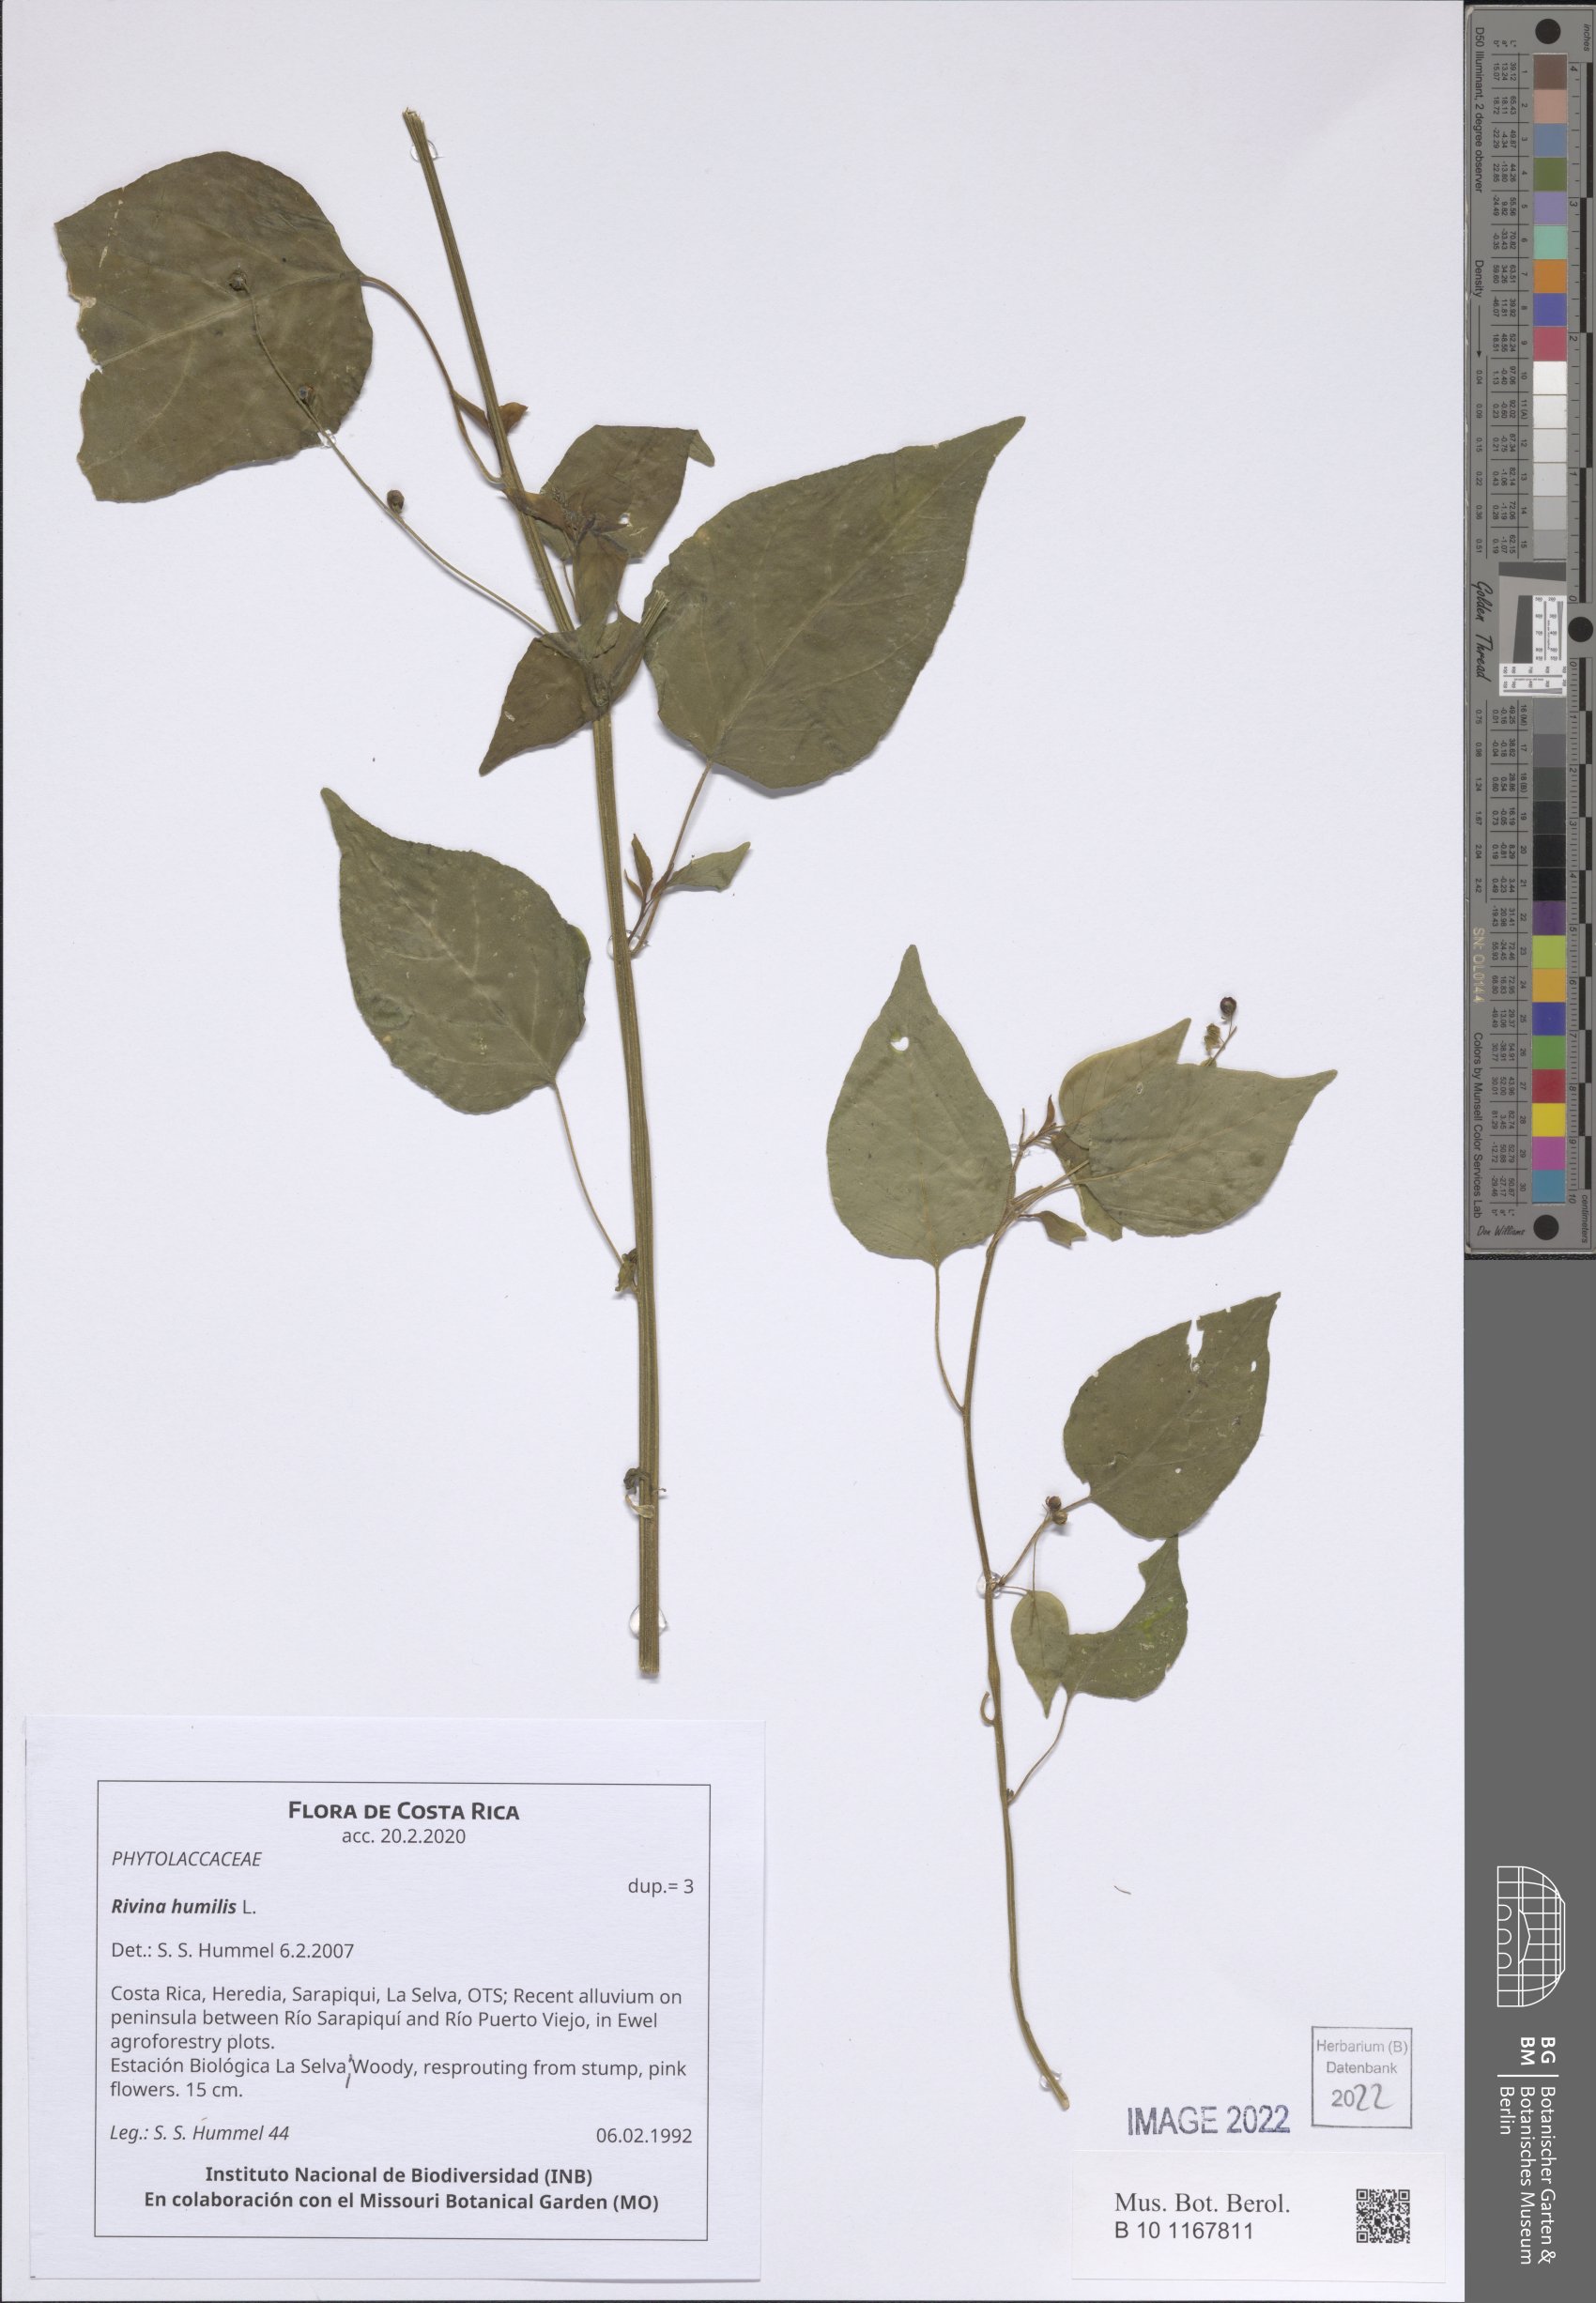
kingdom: Plantae
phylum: Tracheophyta
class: Magnoliopsida
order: Caryophyllales
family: Phytolaccaceae
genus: Rivina
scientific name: Rivina humilis
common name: Rougeplant
